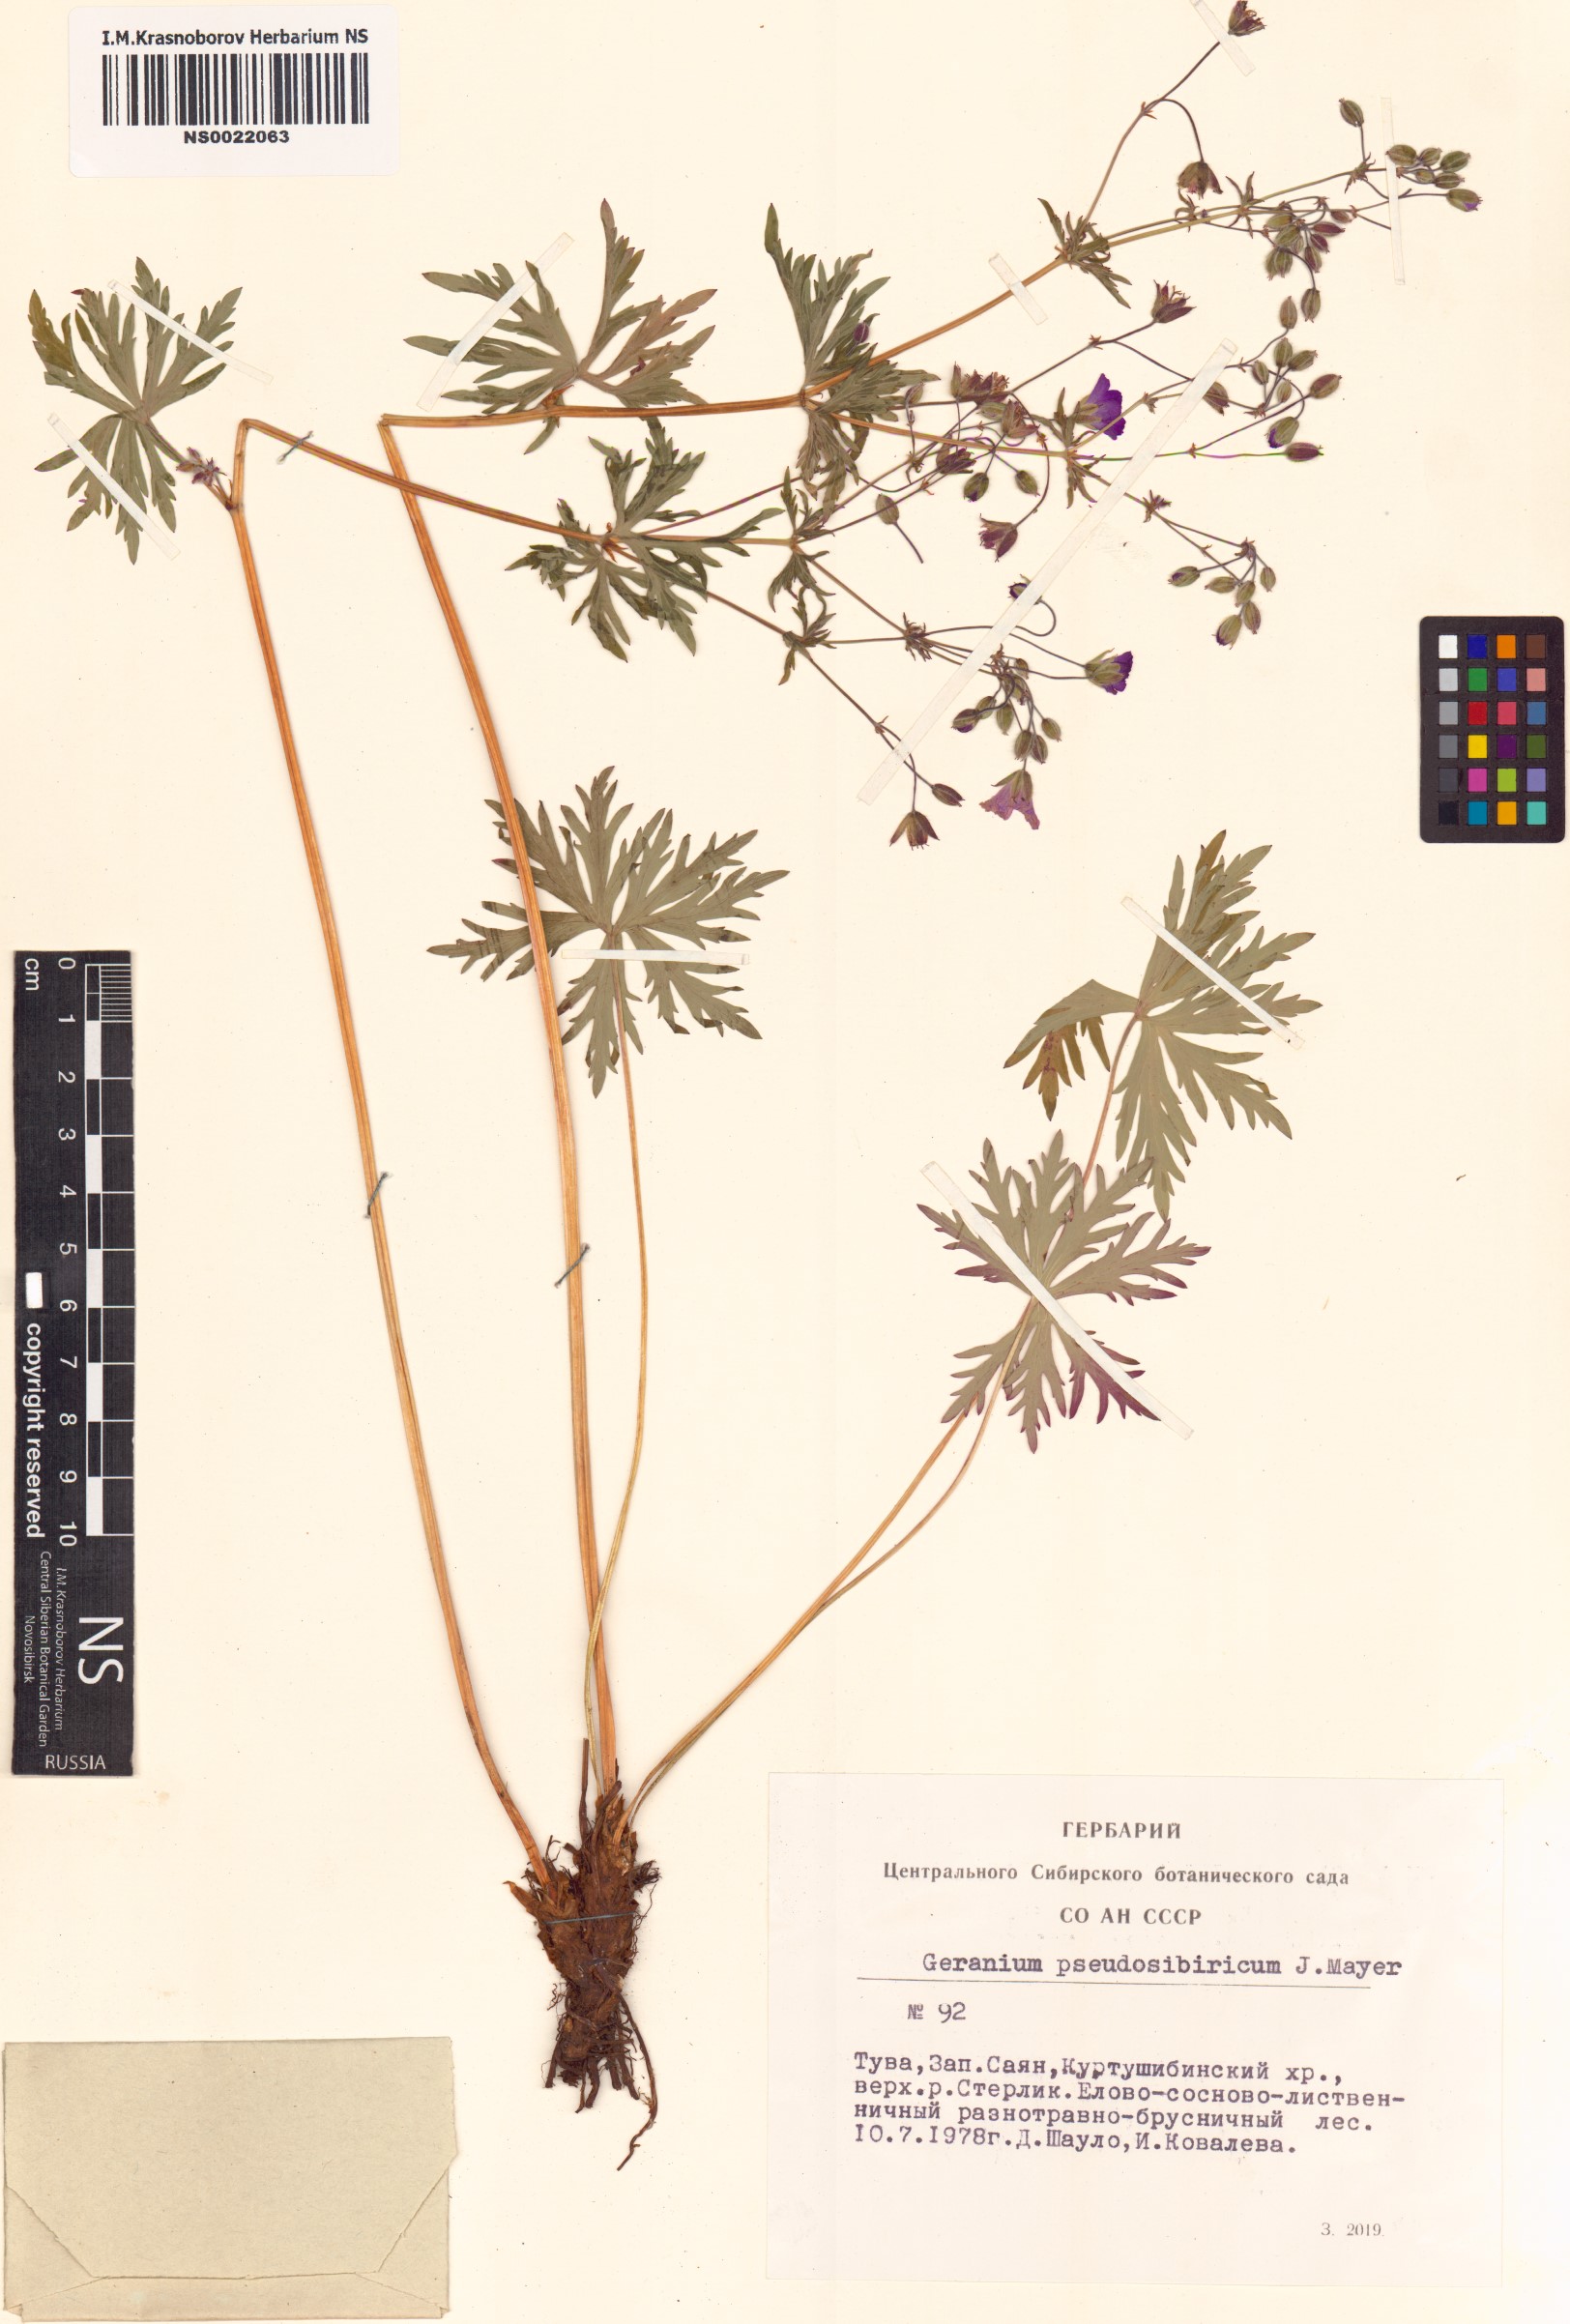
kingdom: Plantae
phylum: Tracheophyta
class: Magnoliopsida
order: Geraniales
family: Geraniaceae
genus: Geranium
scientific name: Geranium pseudosibiricum
